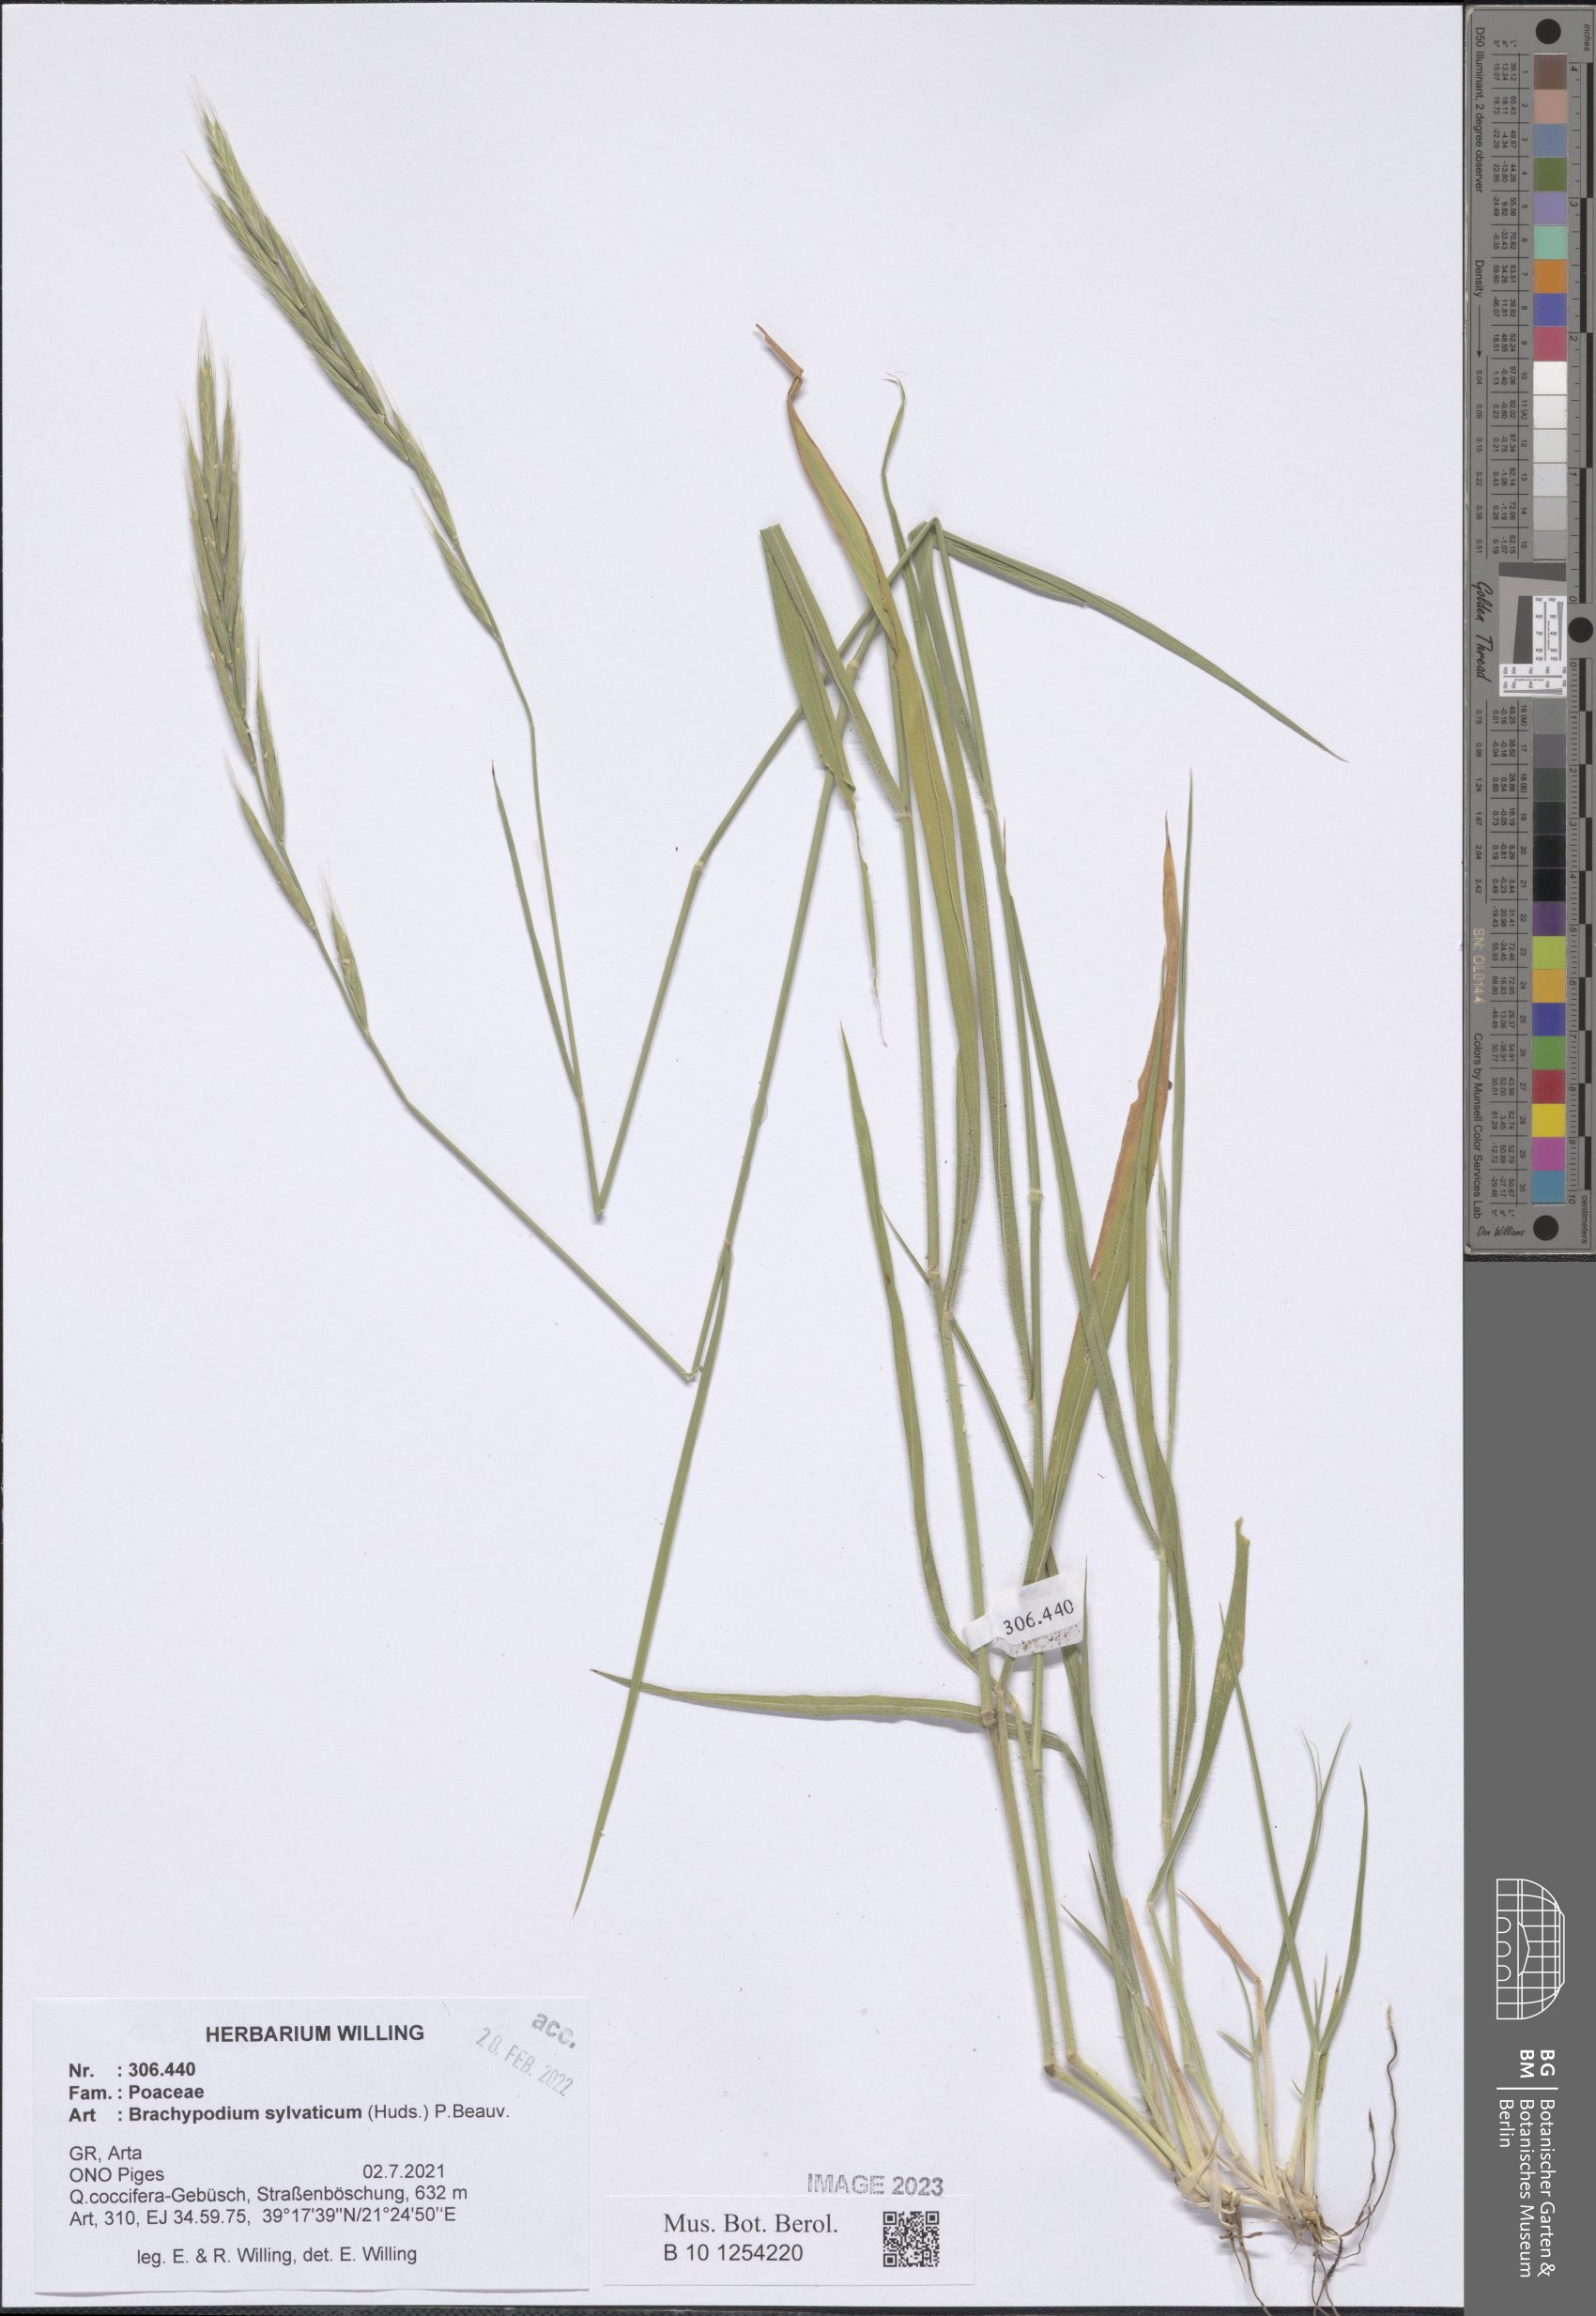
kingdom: Plantae
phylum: Tracheophyta
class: Liliopsida
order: Poales
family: Poaceae
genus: Brachypodium
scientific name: Brachypodium sylvaticum
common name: False-brome
